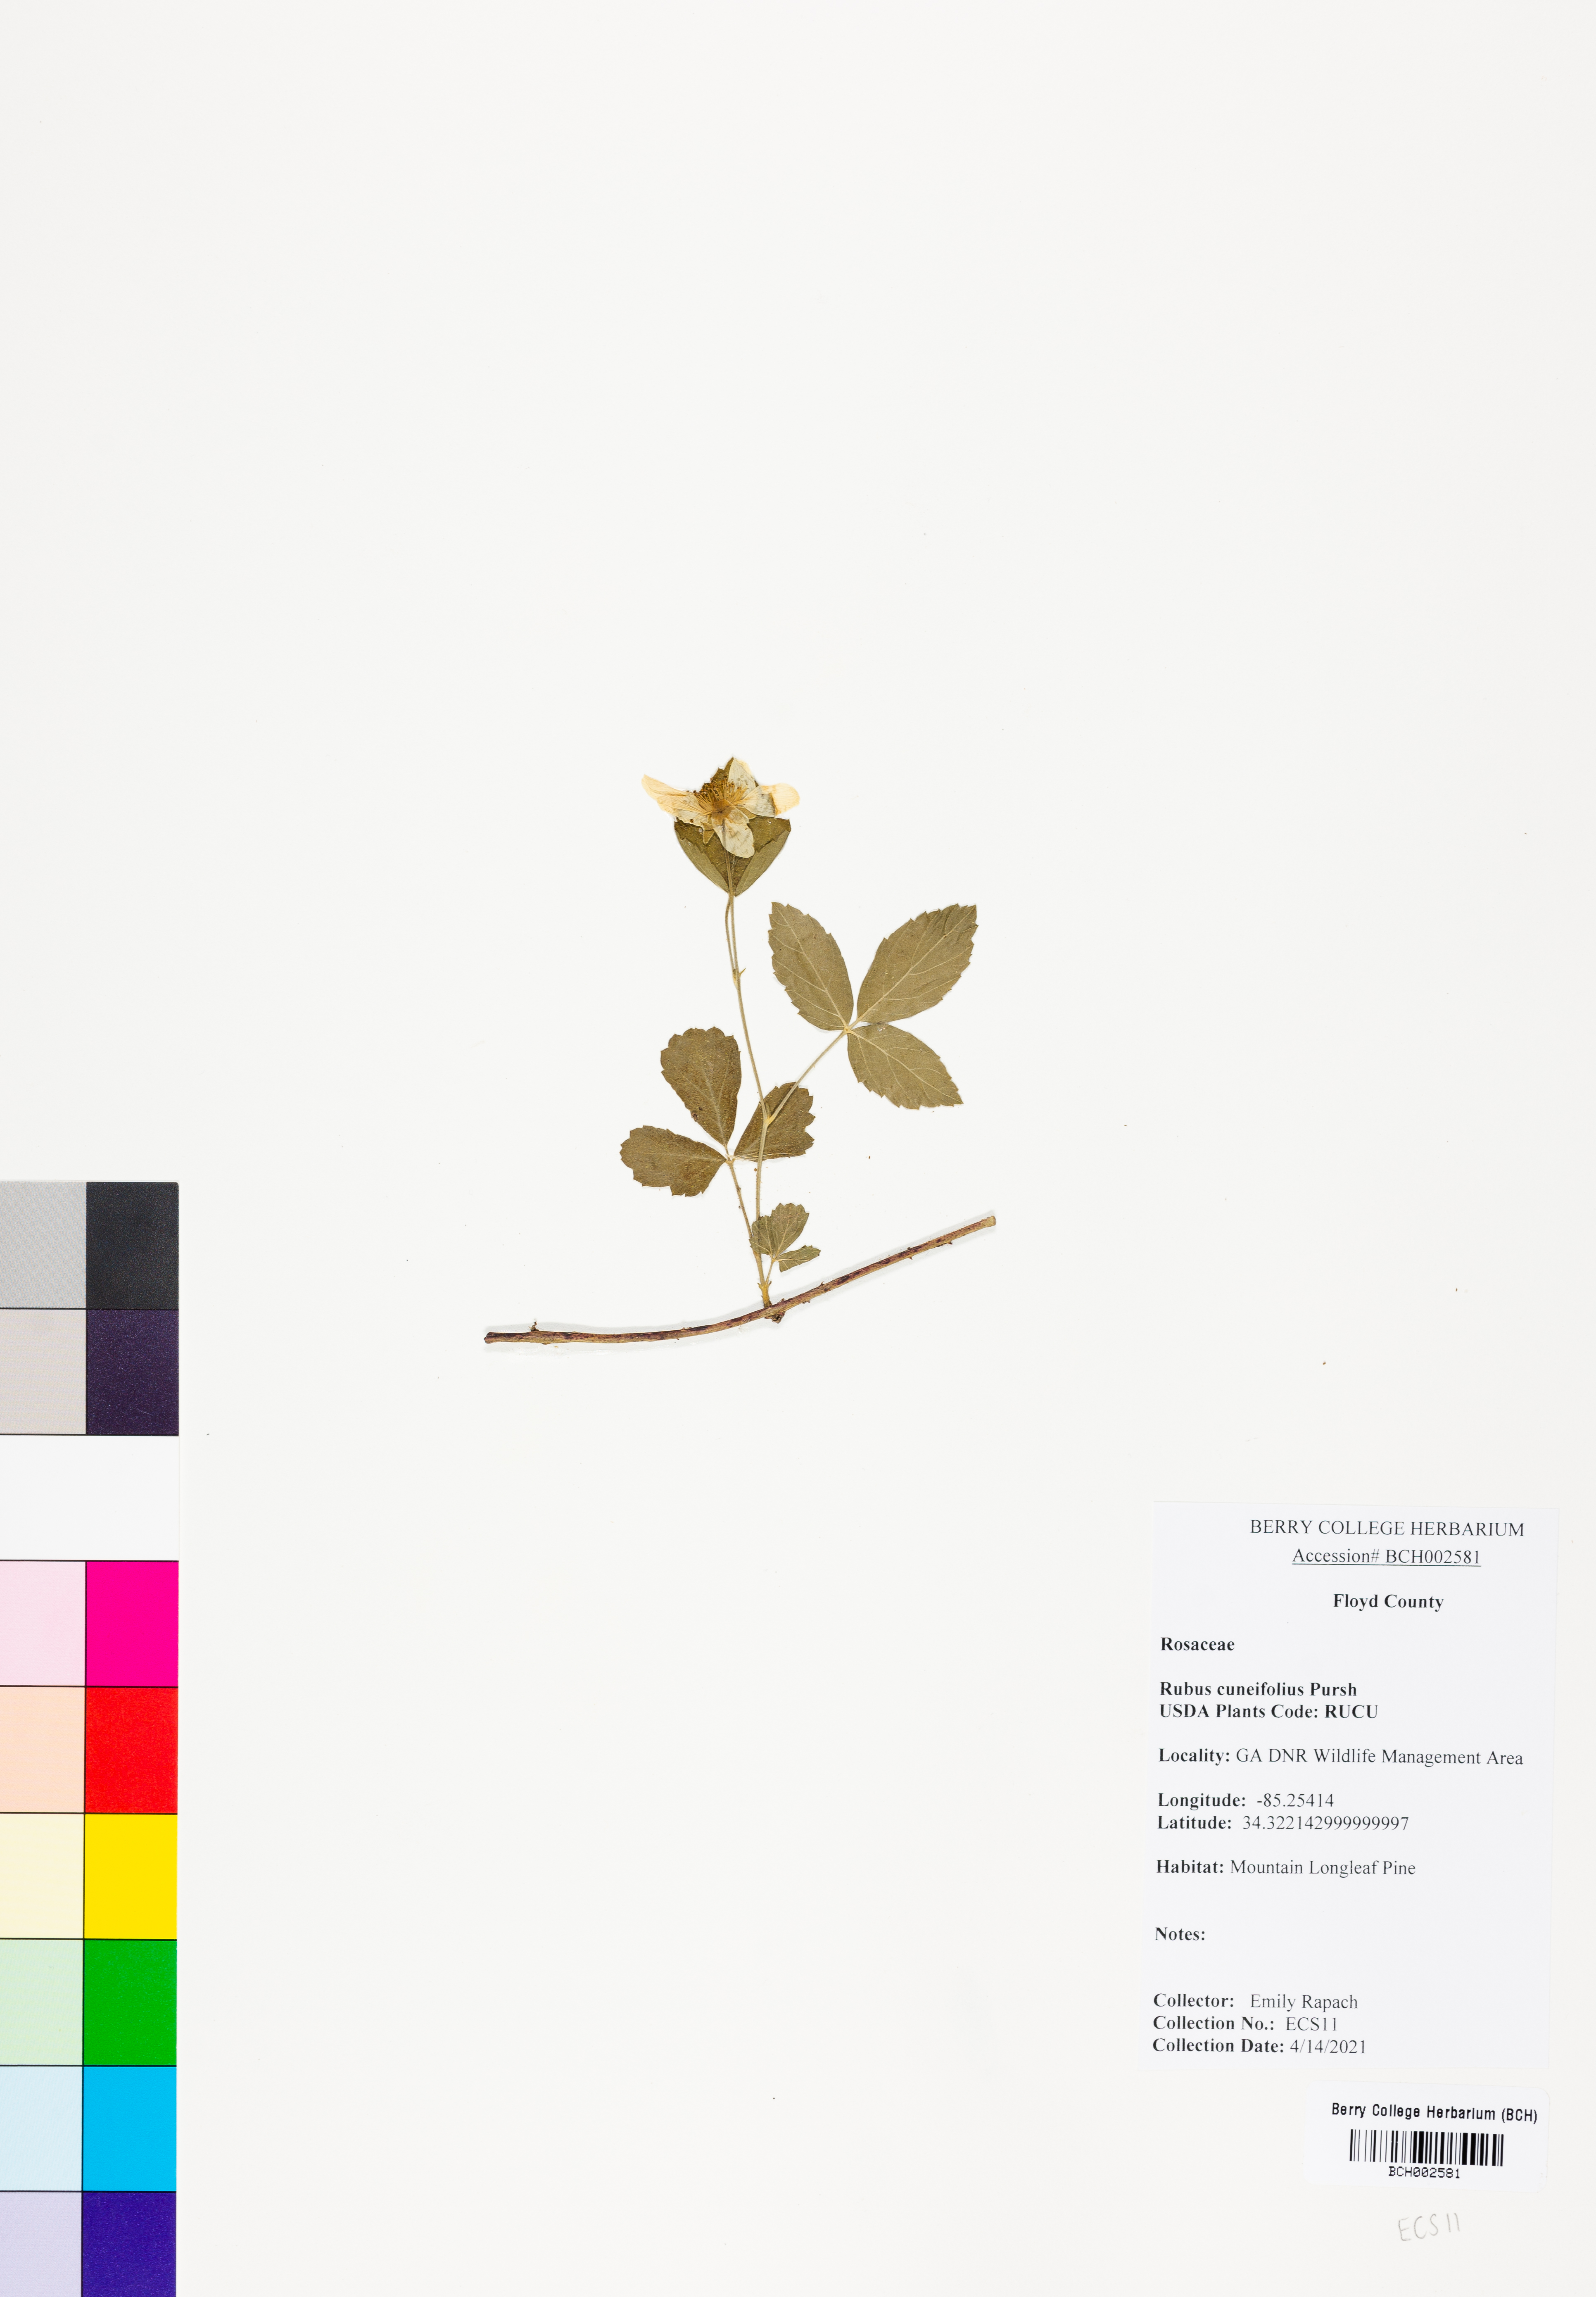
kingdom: Plantae
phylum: Tracheophyta
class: Magnoliopsida
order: Rosales
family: Rosaceae
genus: Rubus
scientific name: Rubus cuneifolius
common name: American bramble
